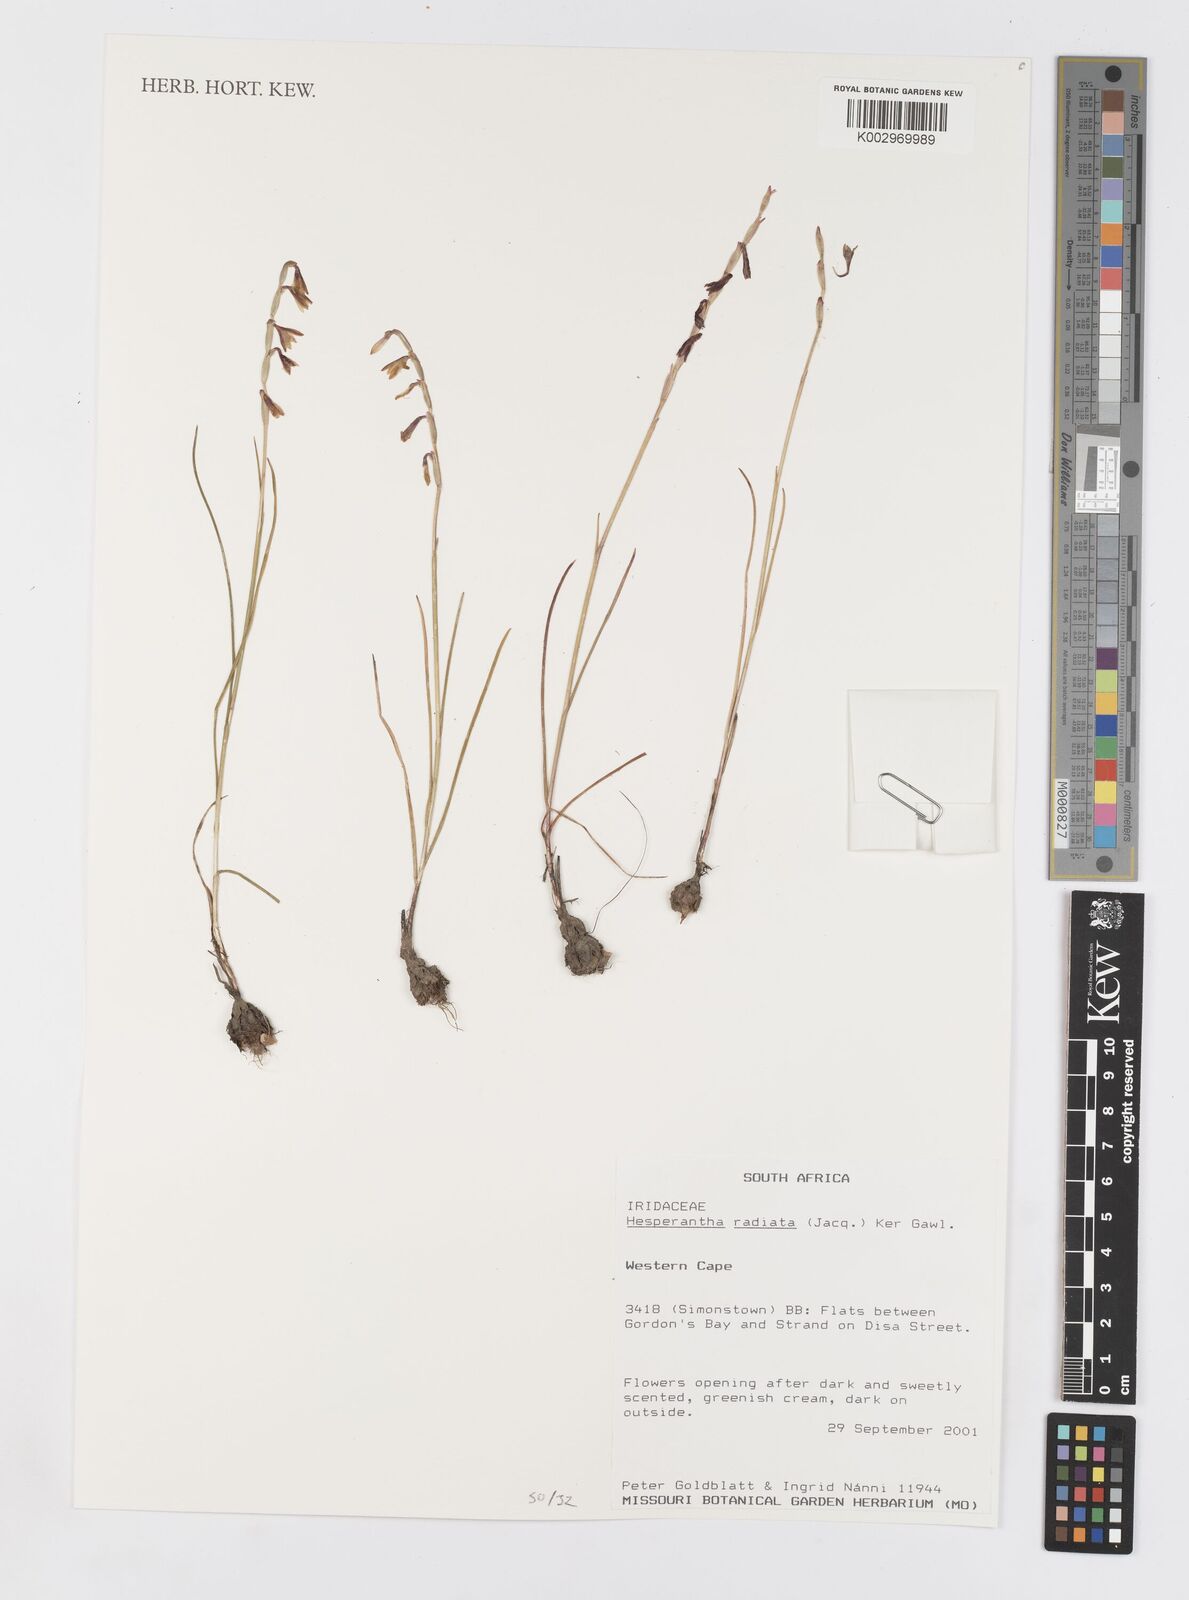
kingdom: Plantae
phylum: Tracheophyta
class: Liliopsida
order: Asparagales
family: Iridaceae
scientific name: Iridaceae
